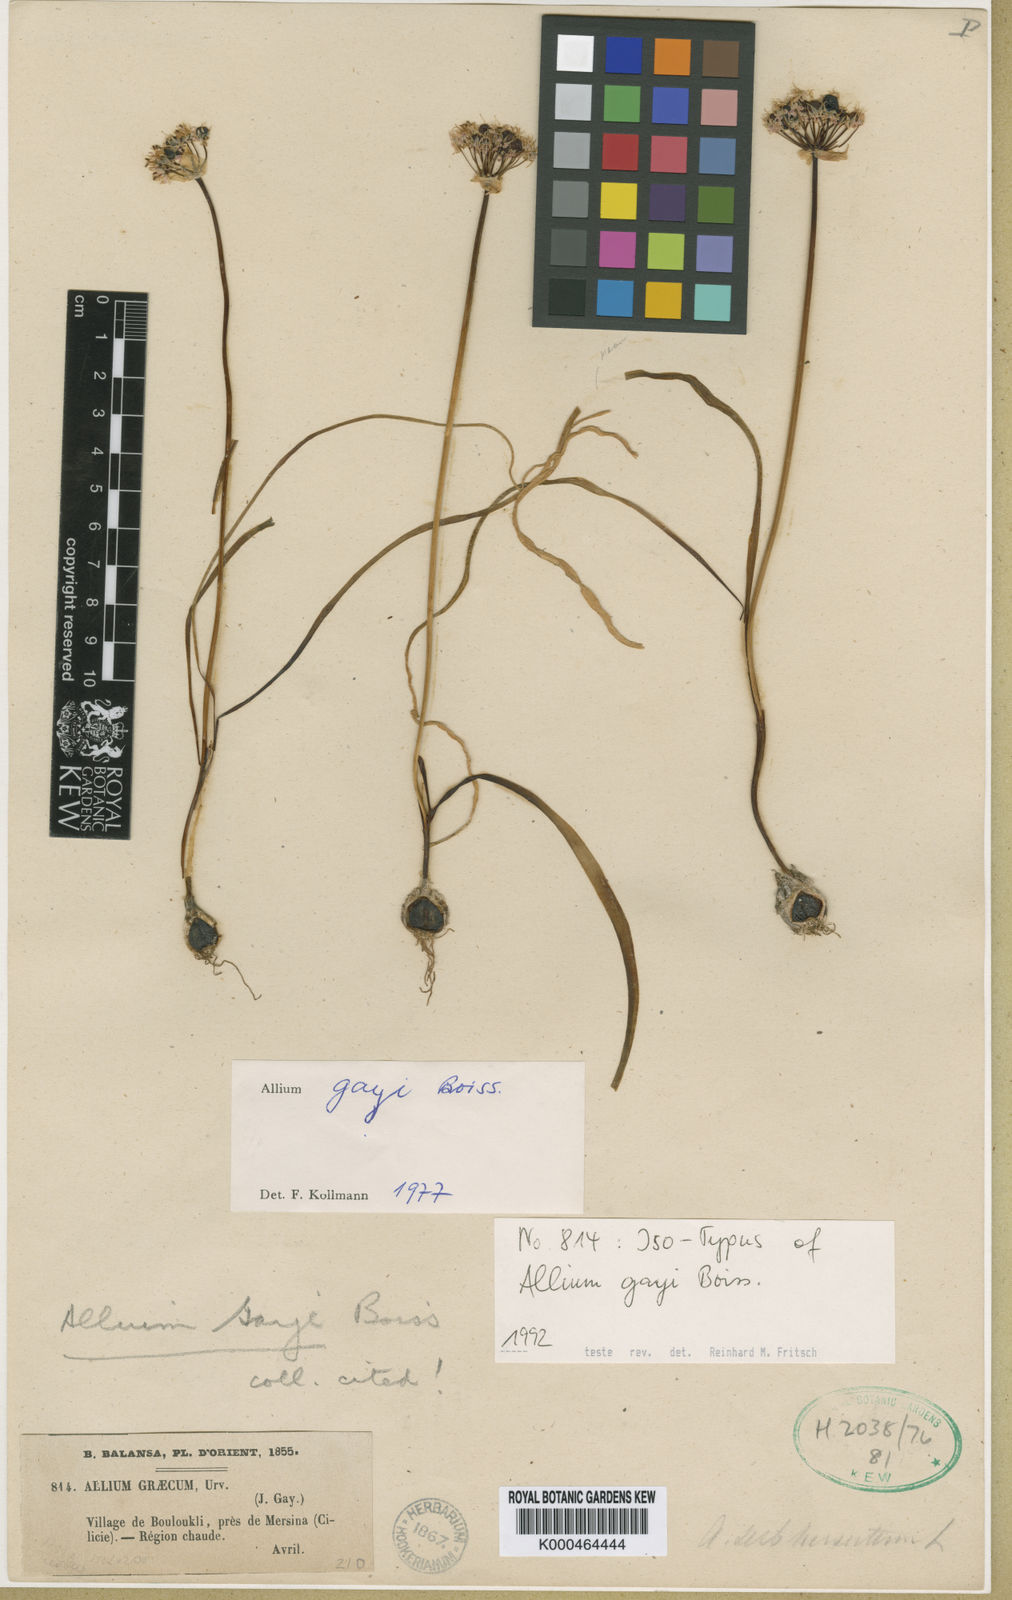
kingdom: Plantae
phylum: Tracheophyta
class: Liliopsida
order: Asparagales
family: Amaryllidaceae
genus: Allium
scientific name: Allium orientale
